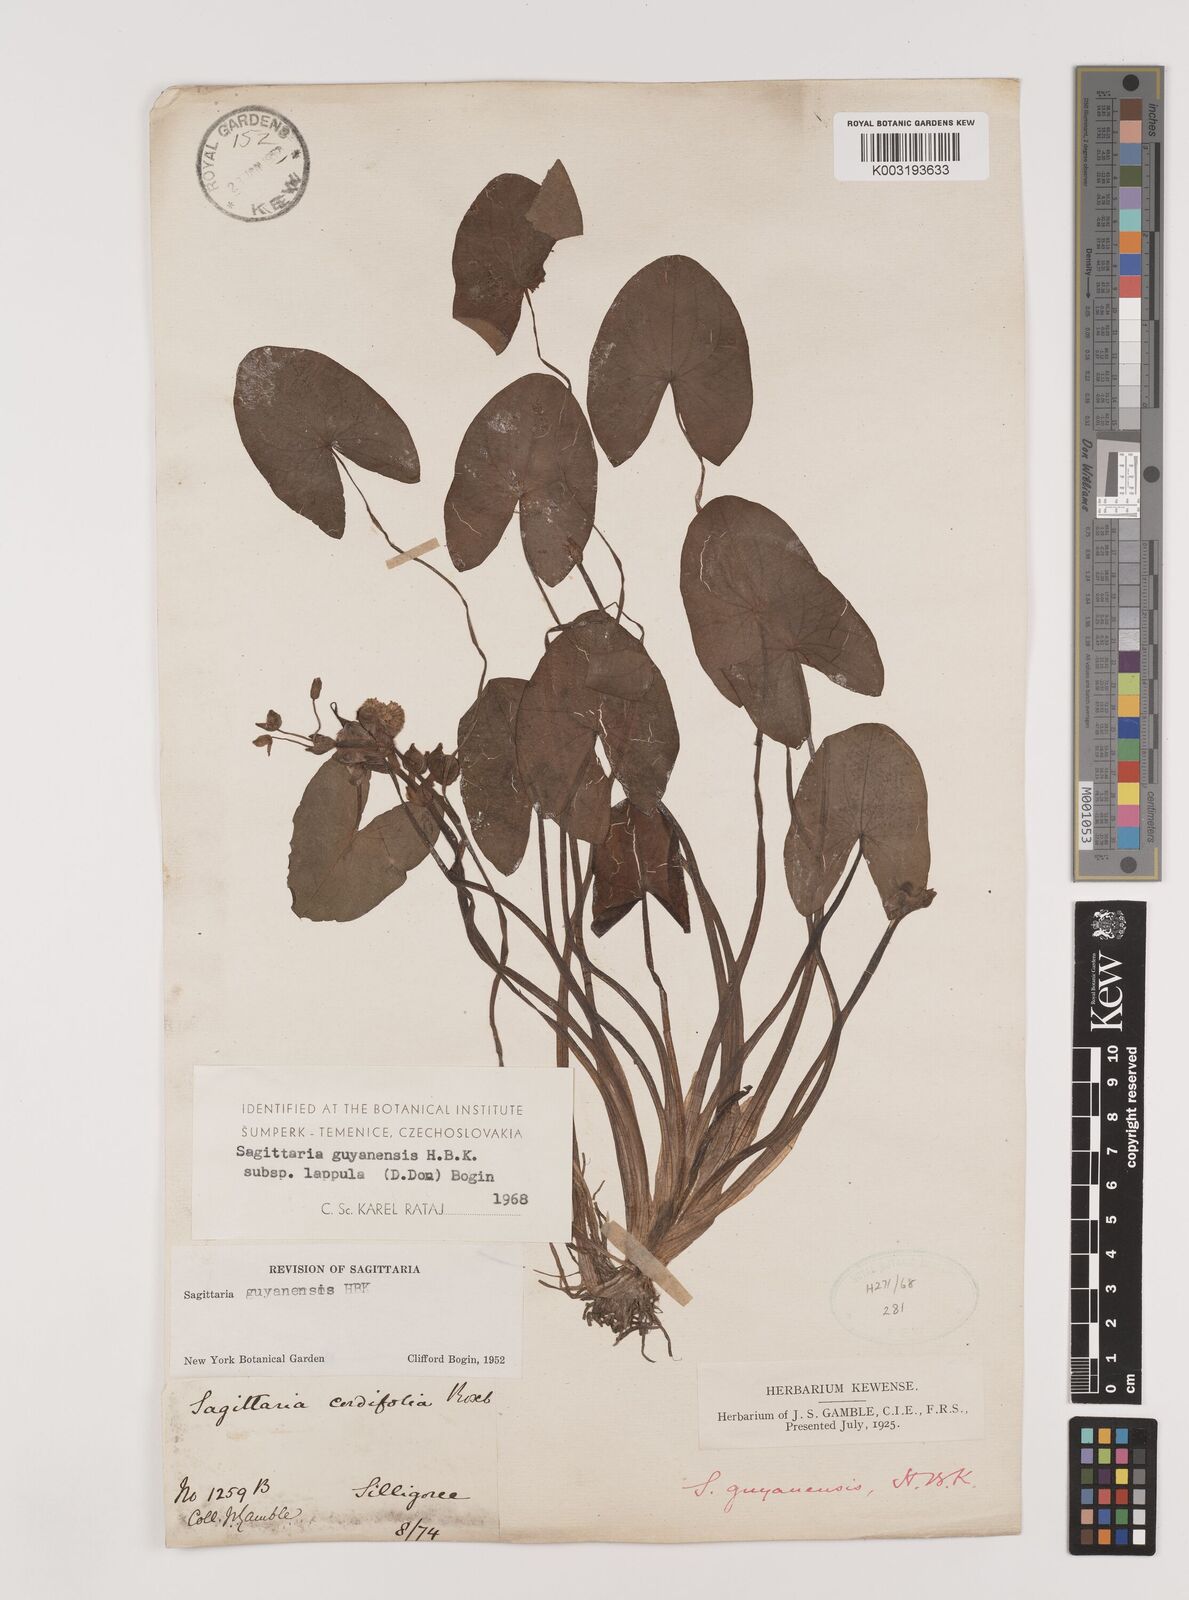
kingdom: Plantae
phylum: Tracheophyta
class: Liliopsida
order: Alismatales
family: Alismataceae
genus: Sagittaria
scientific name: Sagittaria guayanensis
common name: Guyanese arrowhead
